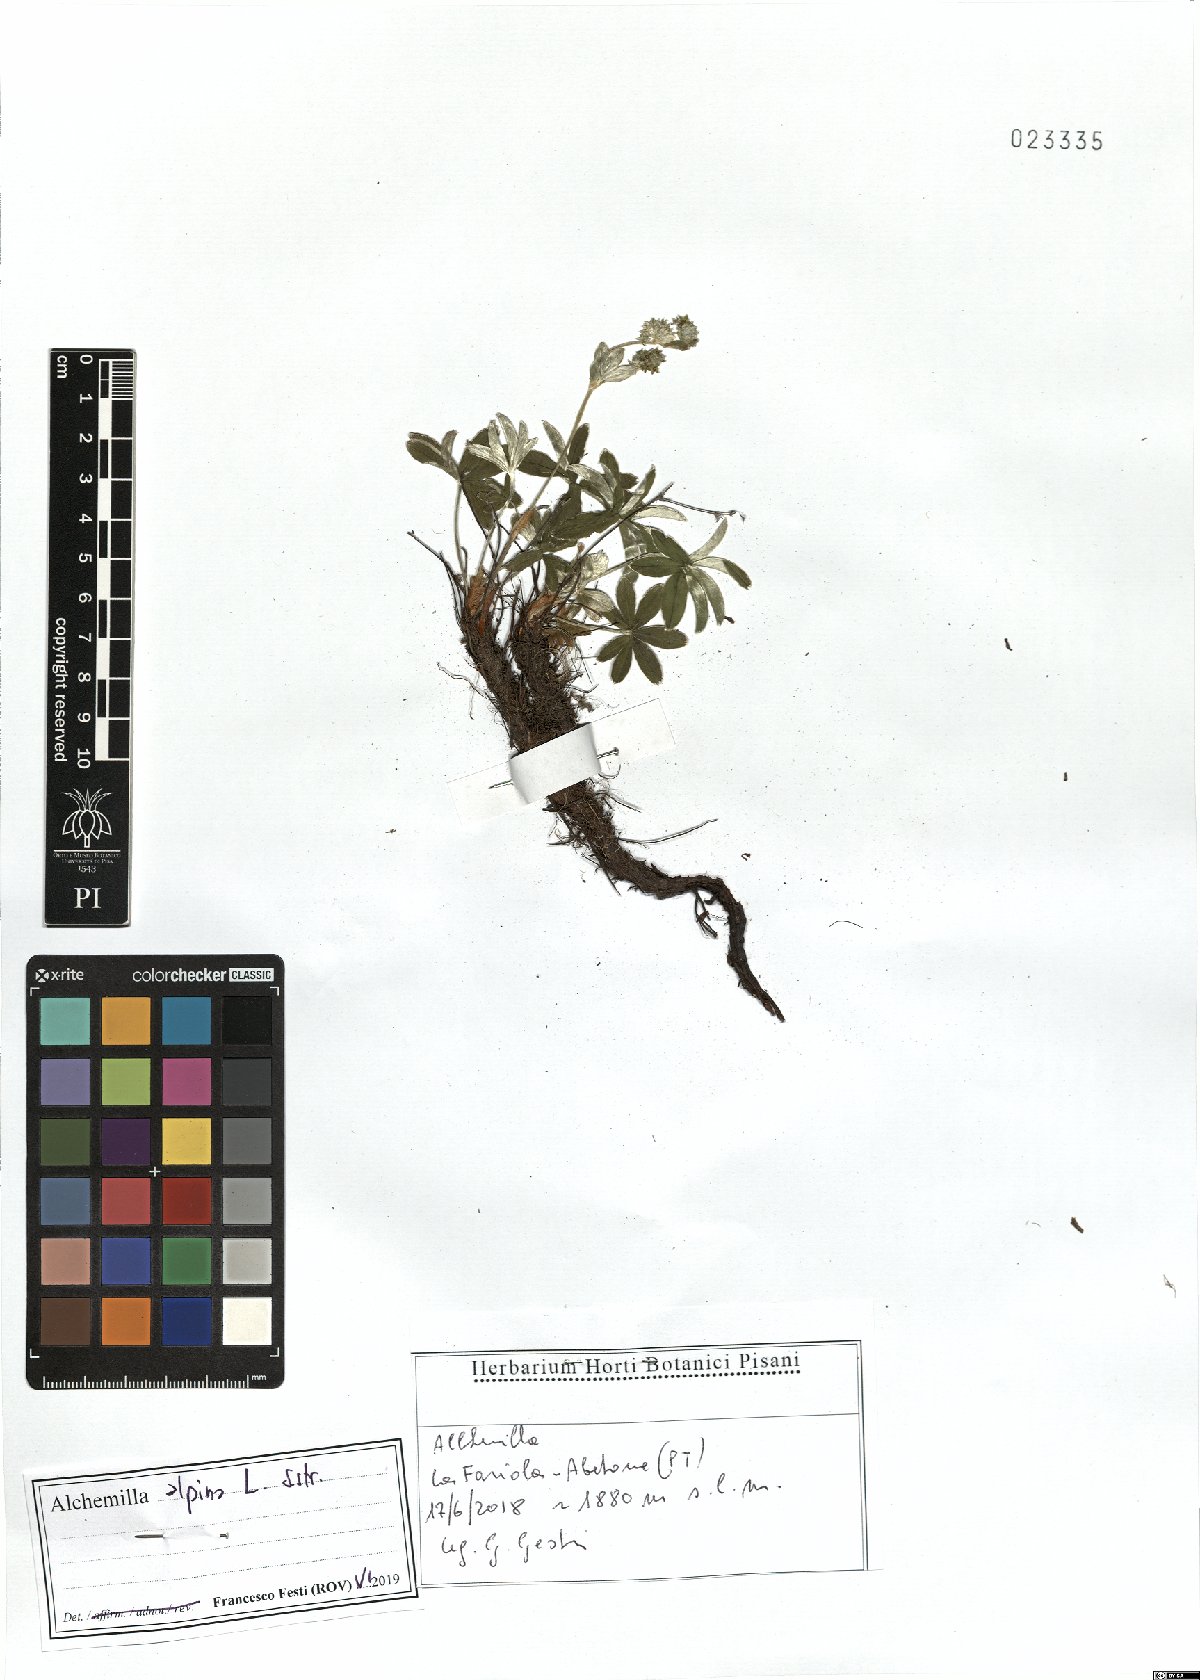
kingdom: Plantae
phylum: Tracheophyta
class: Magnoliopsida
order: Rosales
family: Rosaceae
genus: Alchemilla
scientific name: Alchemilla alpina
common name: Alpine lady's-mantle
